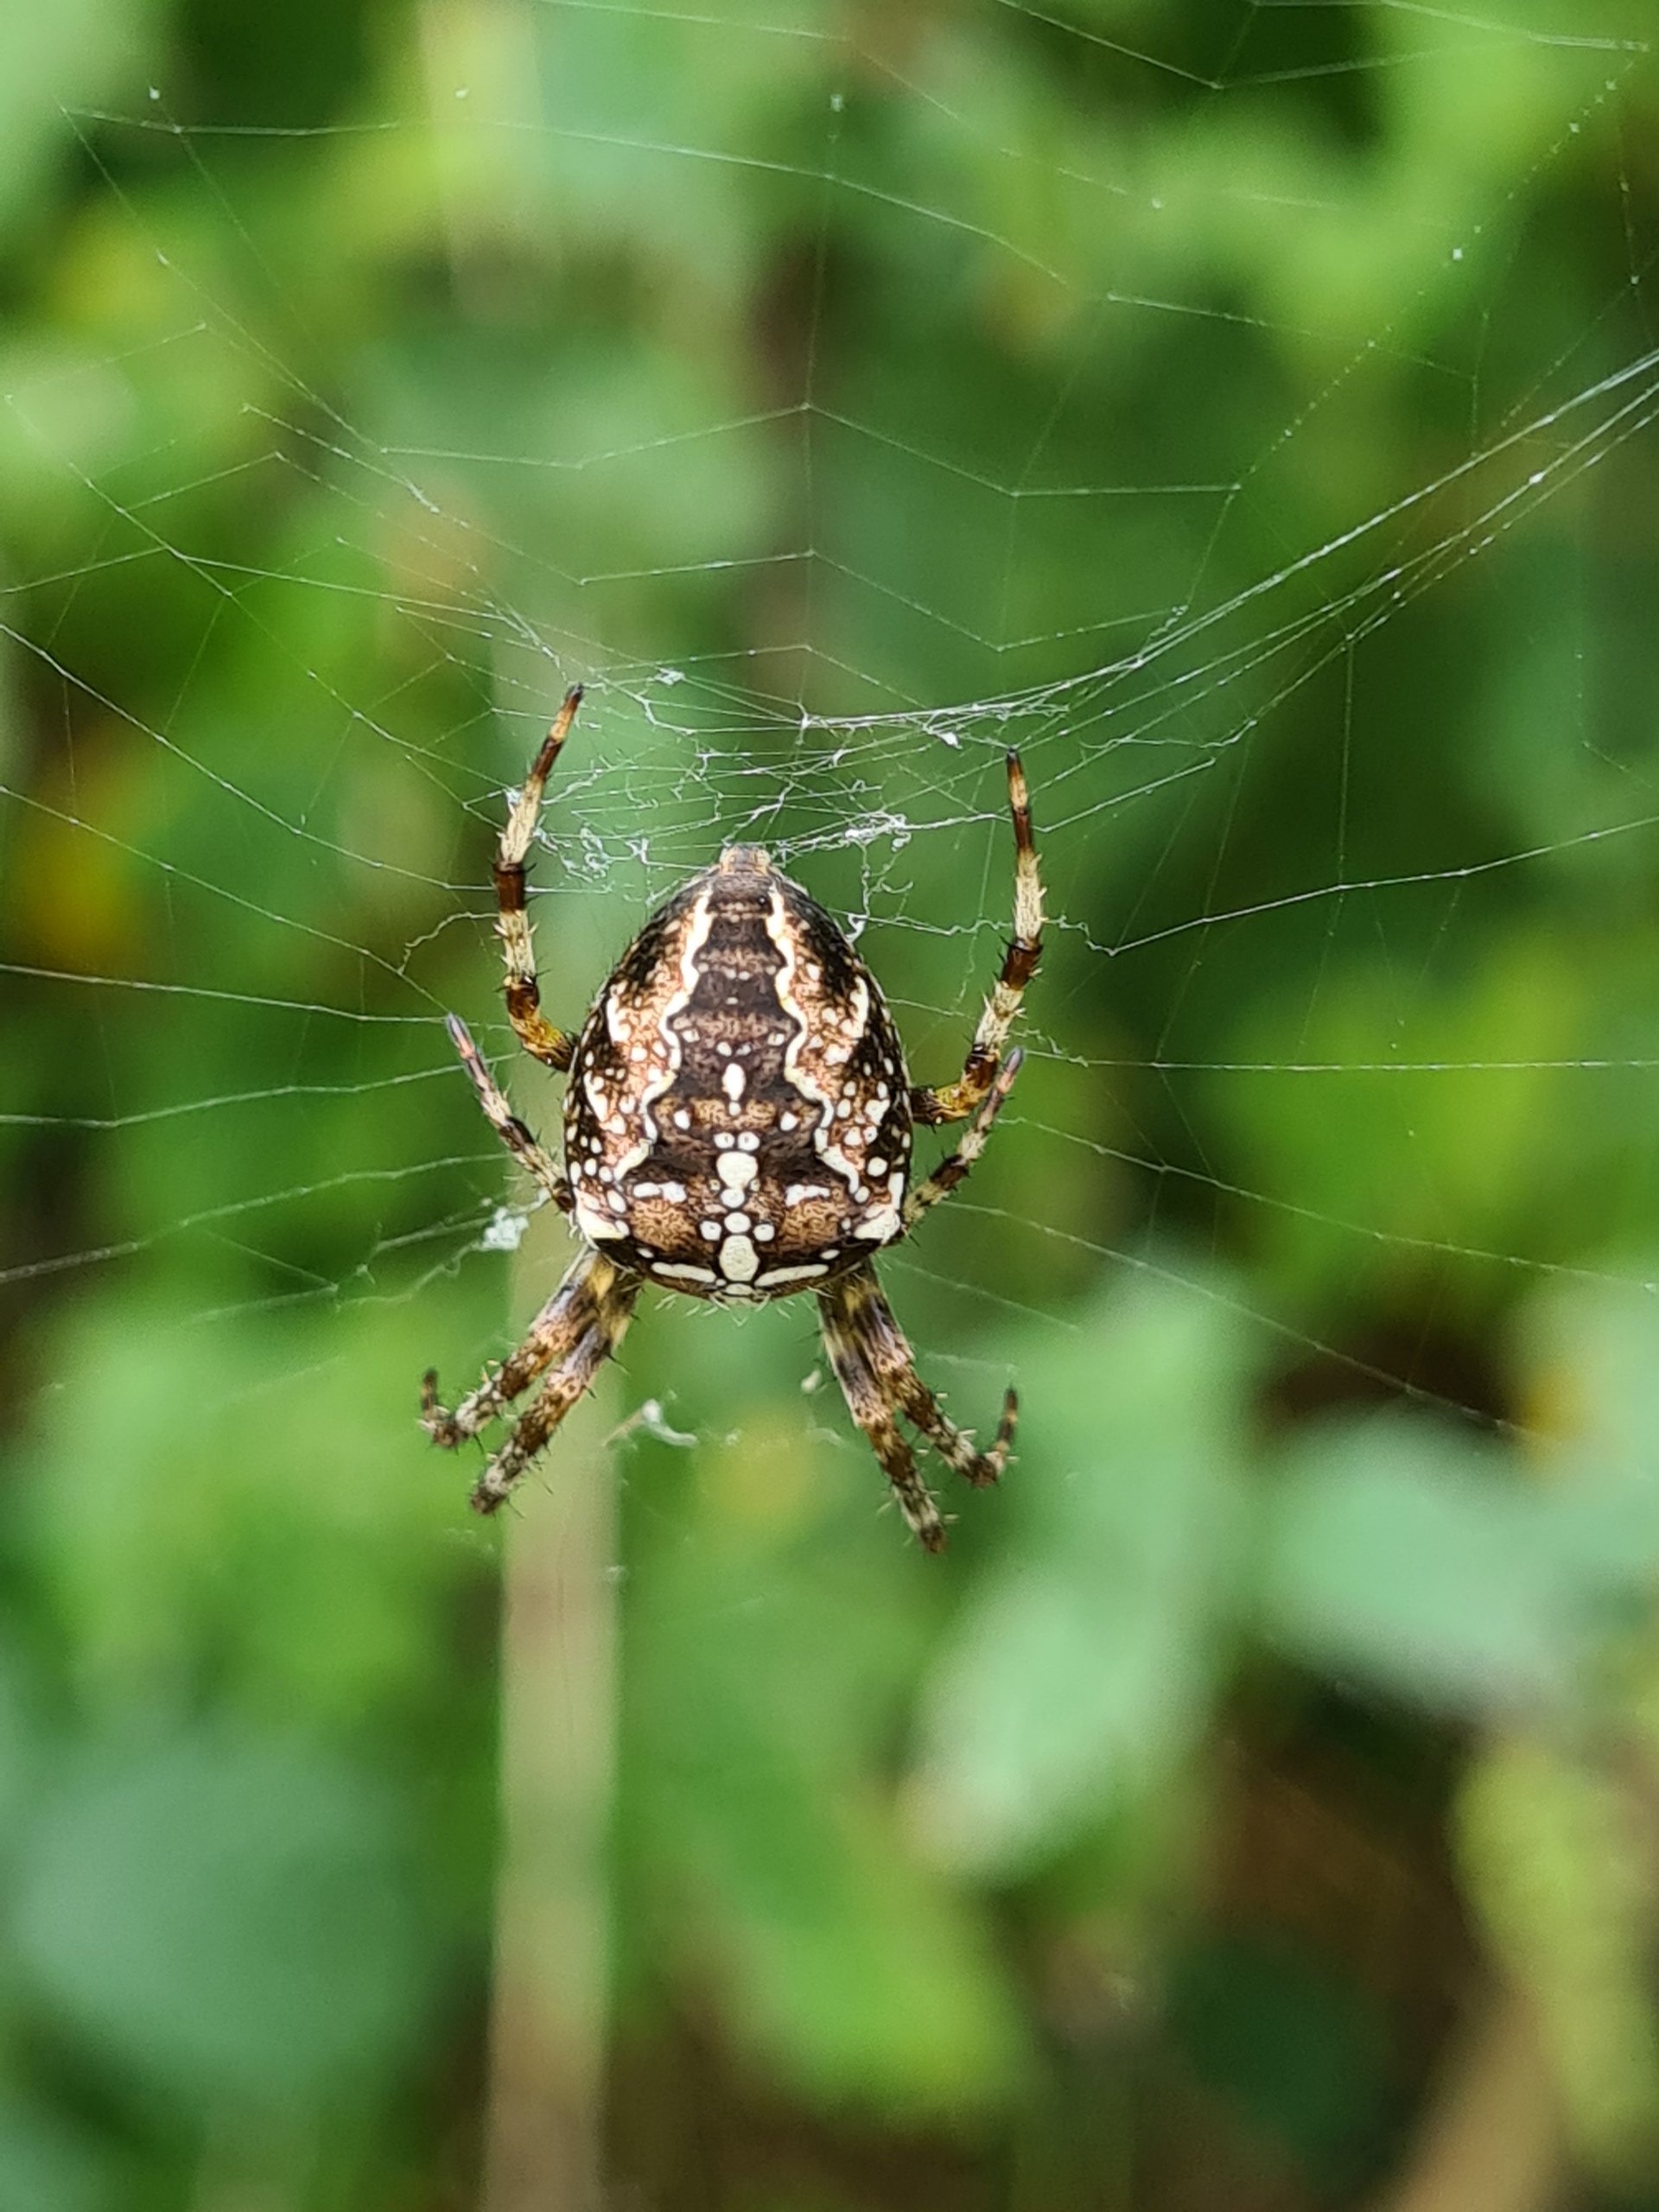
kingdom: Animalia
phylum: Arthropoda
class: Arachnida
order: Araneae
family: Araneidae
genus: Araneus
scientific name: Araneus diadematus
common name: Korsedderkop
